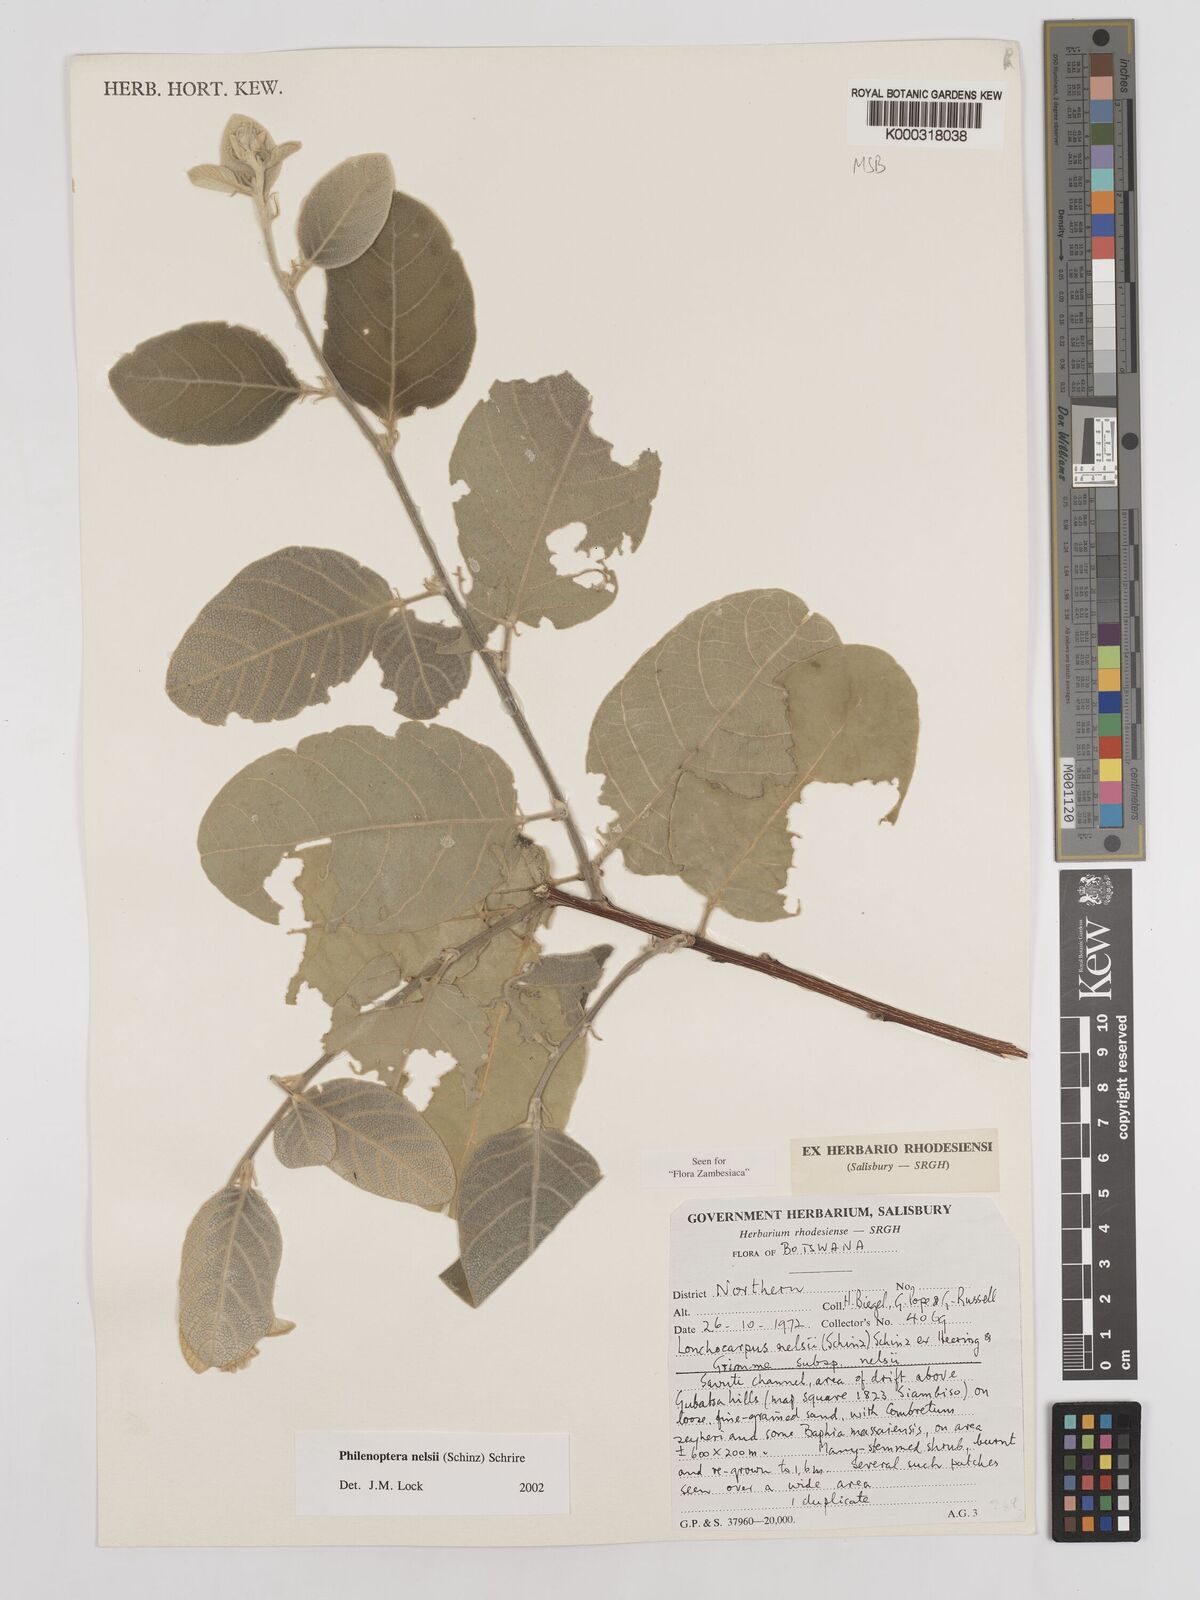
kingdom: Plantae
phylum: Tracheophyta
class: Magnoliopsida
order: Fabales
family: Fabaceae
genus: Philenoptera
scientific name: Philenoptera nelsii
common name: Kalahari apple-leaf
